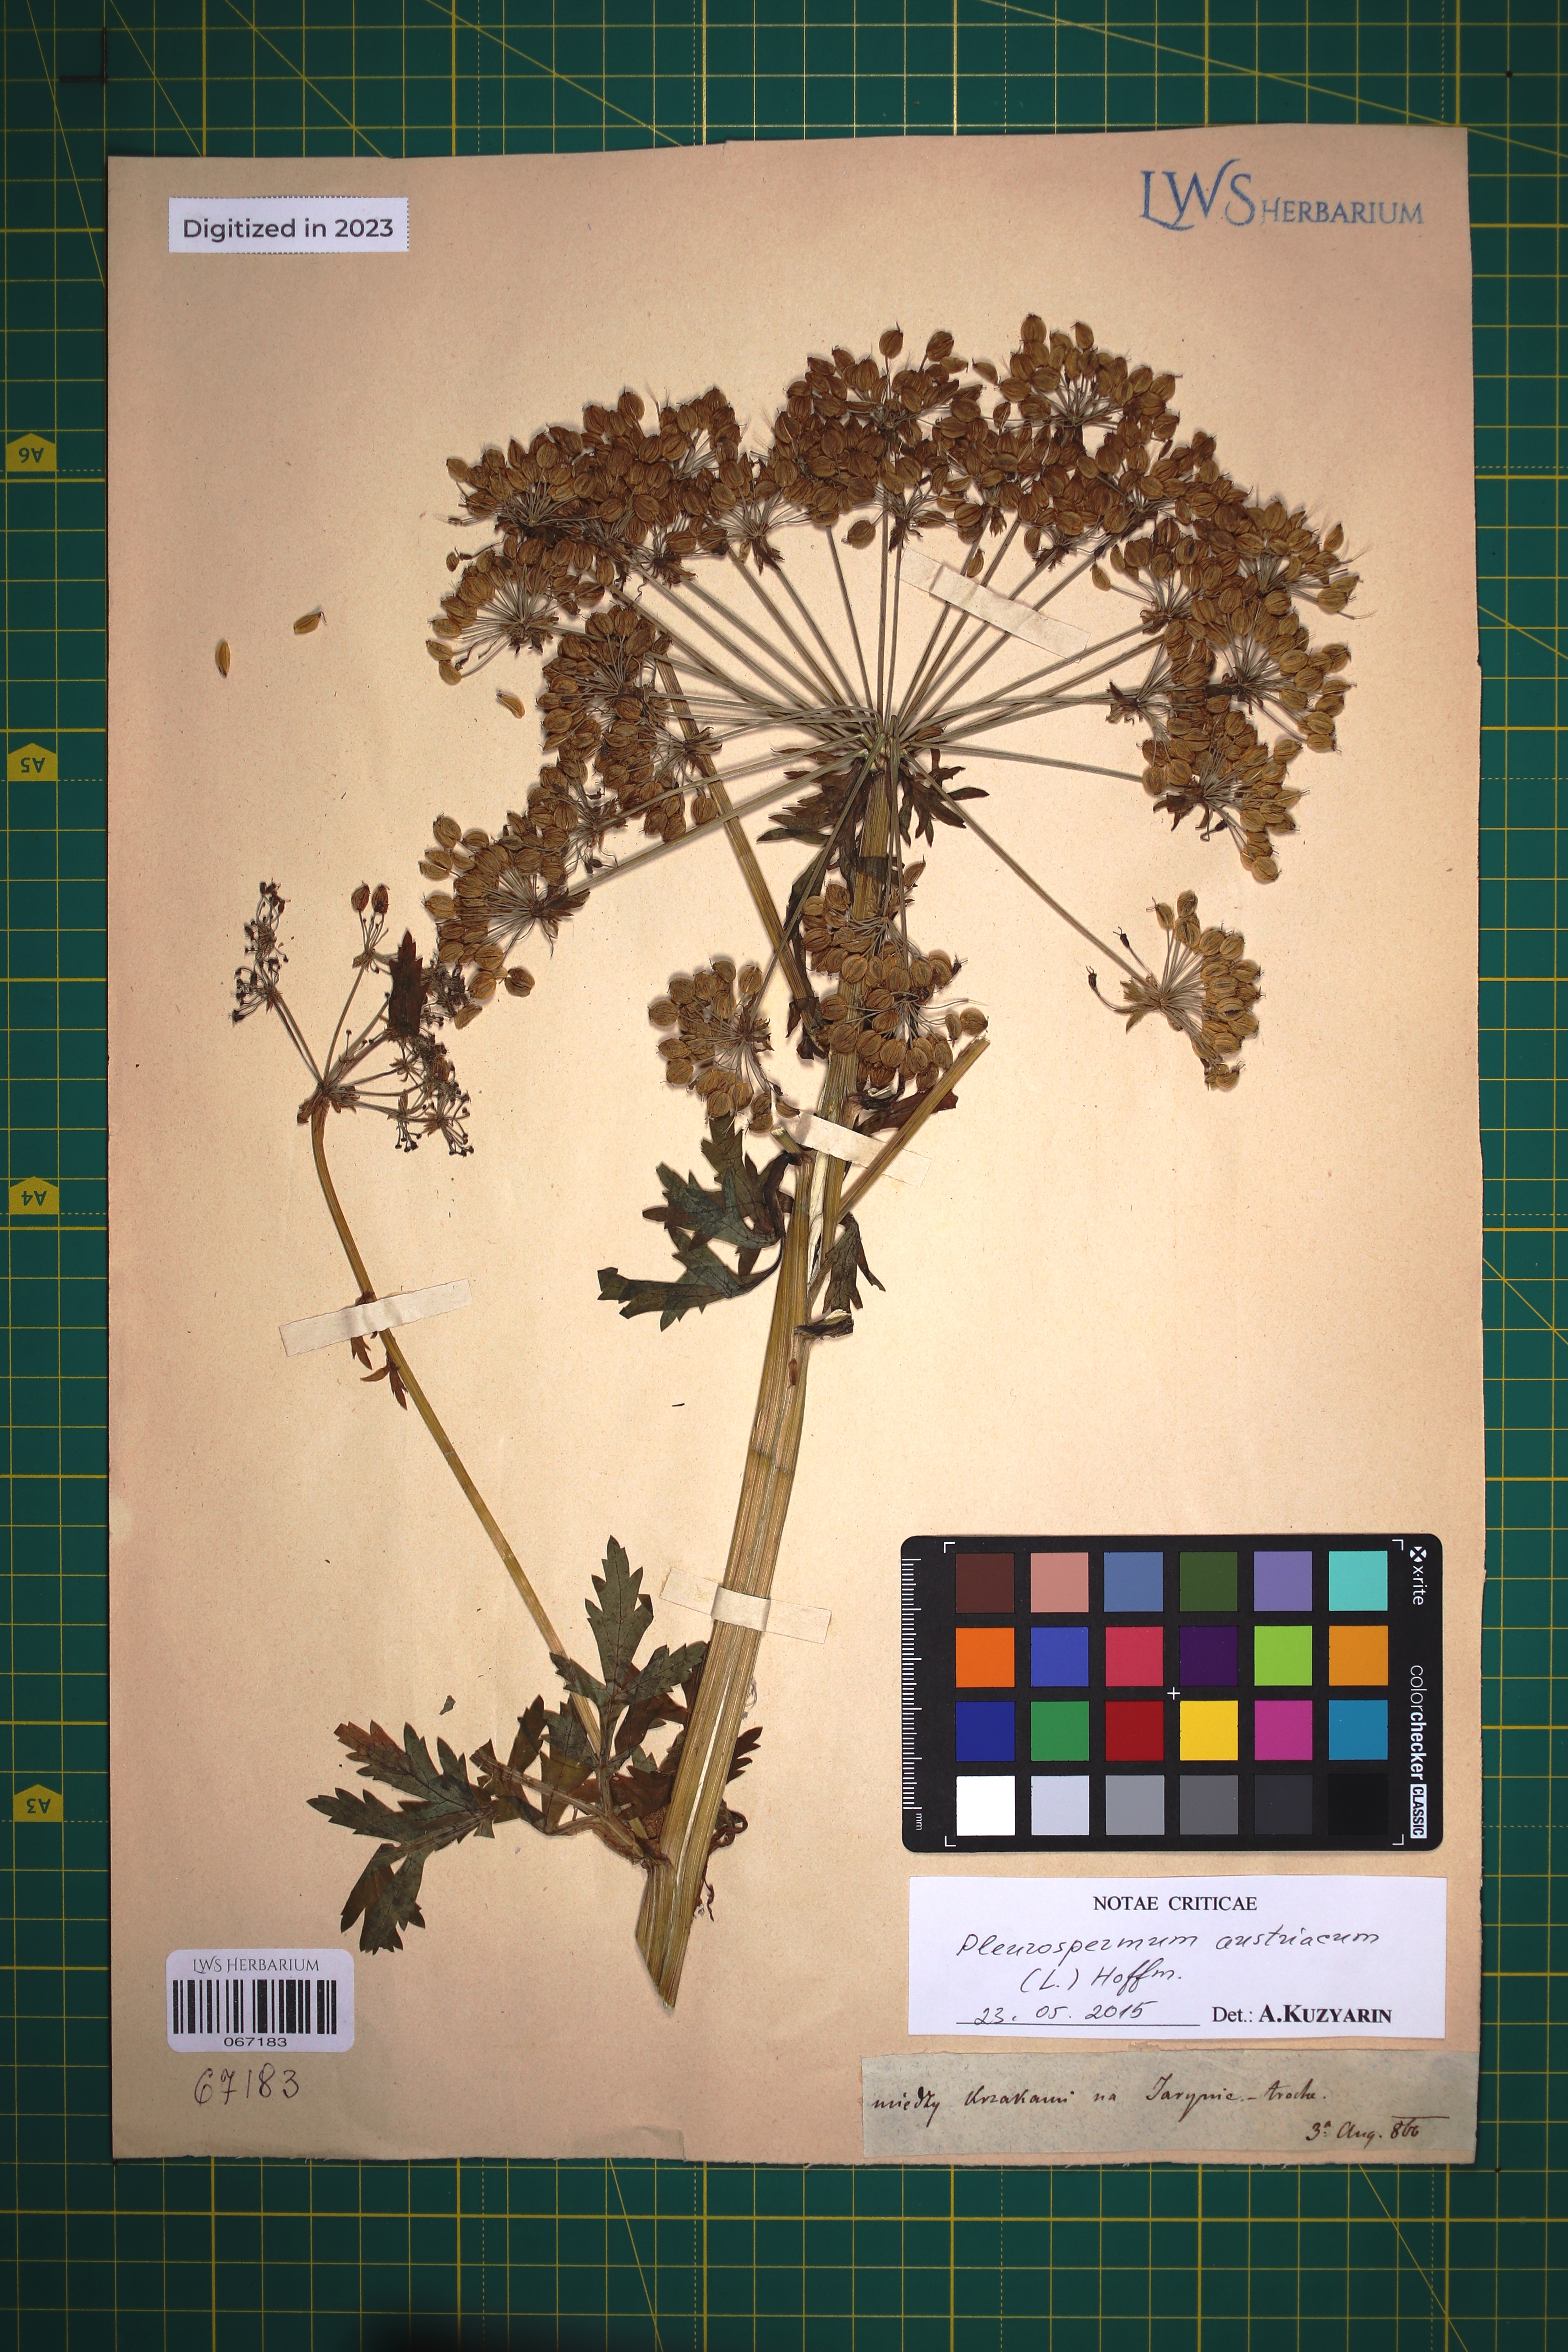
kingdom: Plantae
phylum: Tracheophyta
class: Magnoliopsida
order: Apiales
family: Apiaceae
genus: Pleurospermum
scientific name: Pleurospermum austriacum
